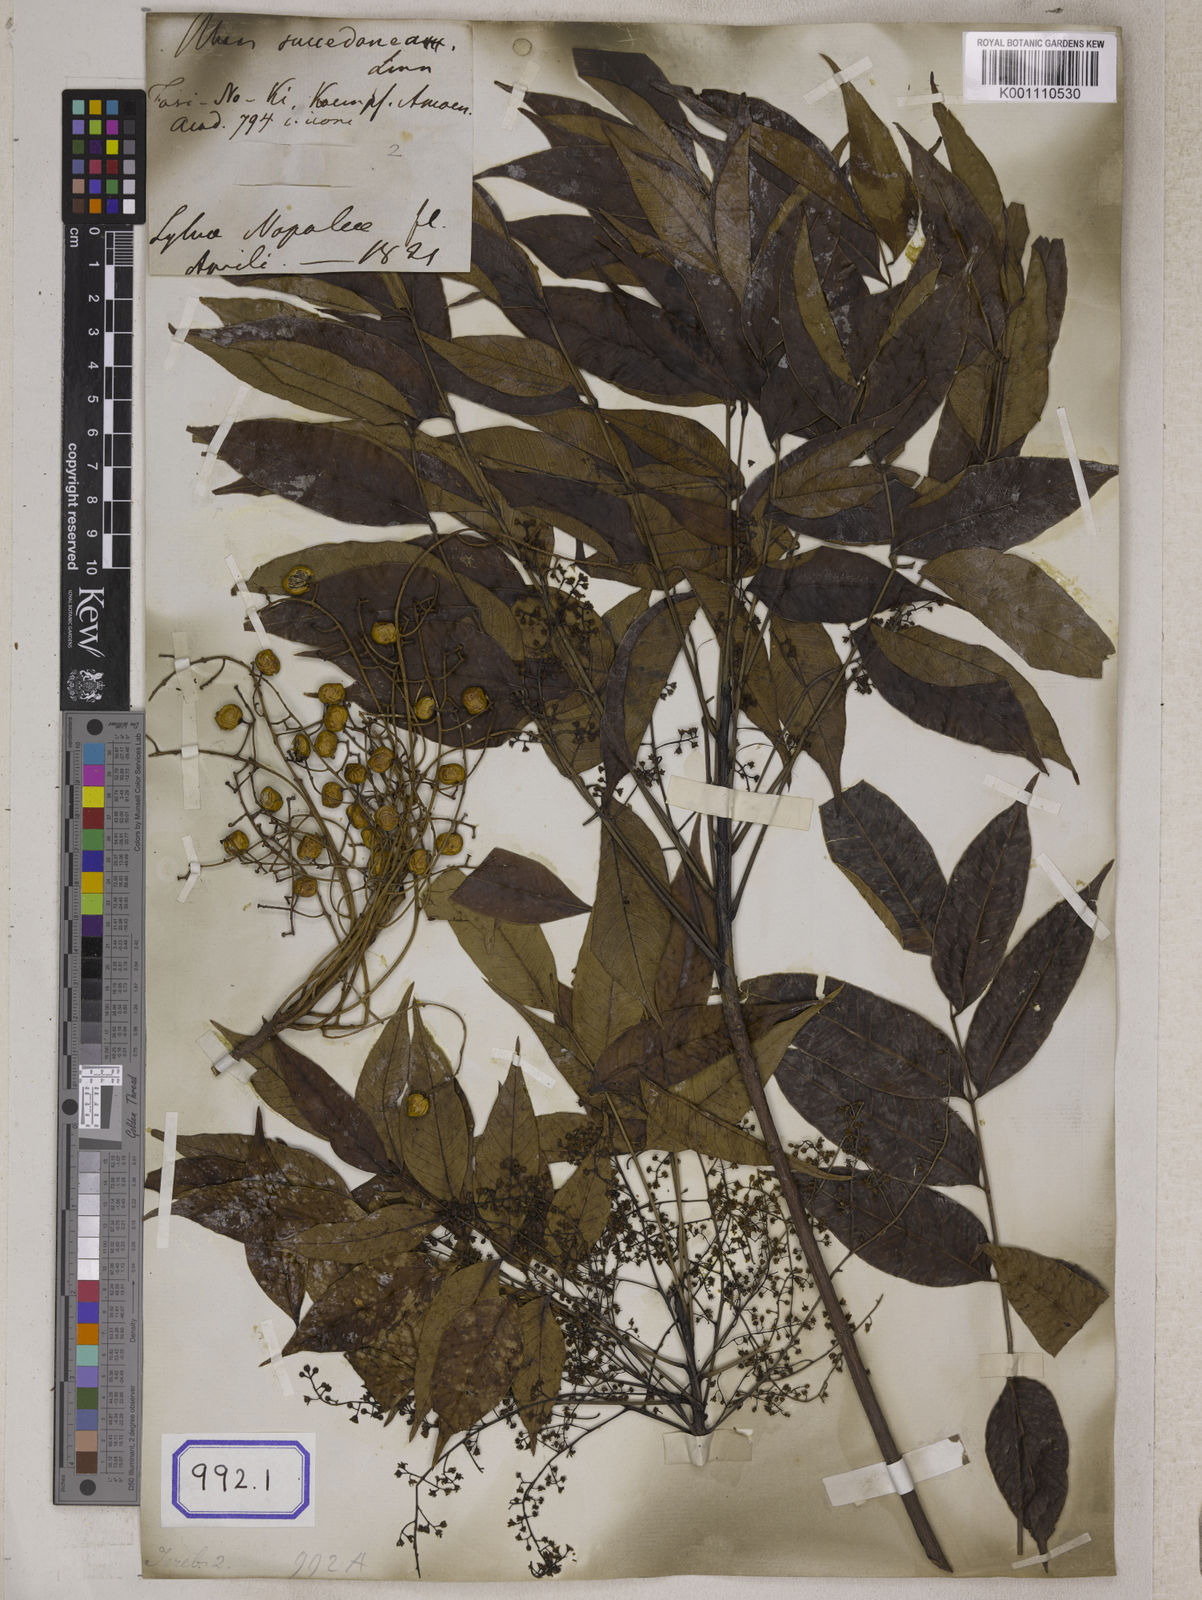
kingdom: Plantae
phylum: Tracheophyta
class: Magnoliopsida
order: Sapindales
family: Anacardiaceae
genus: Toxicodendron
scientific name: Toxicodendron succedaneum
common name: Wax tree
